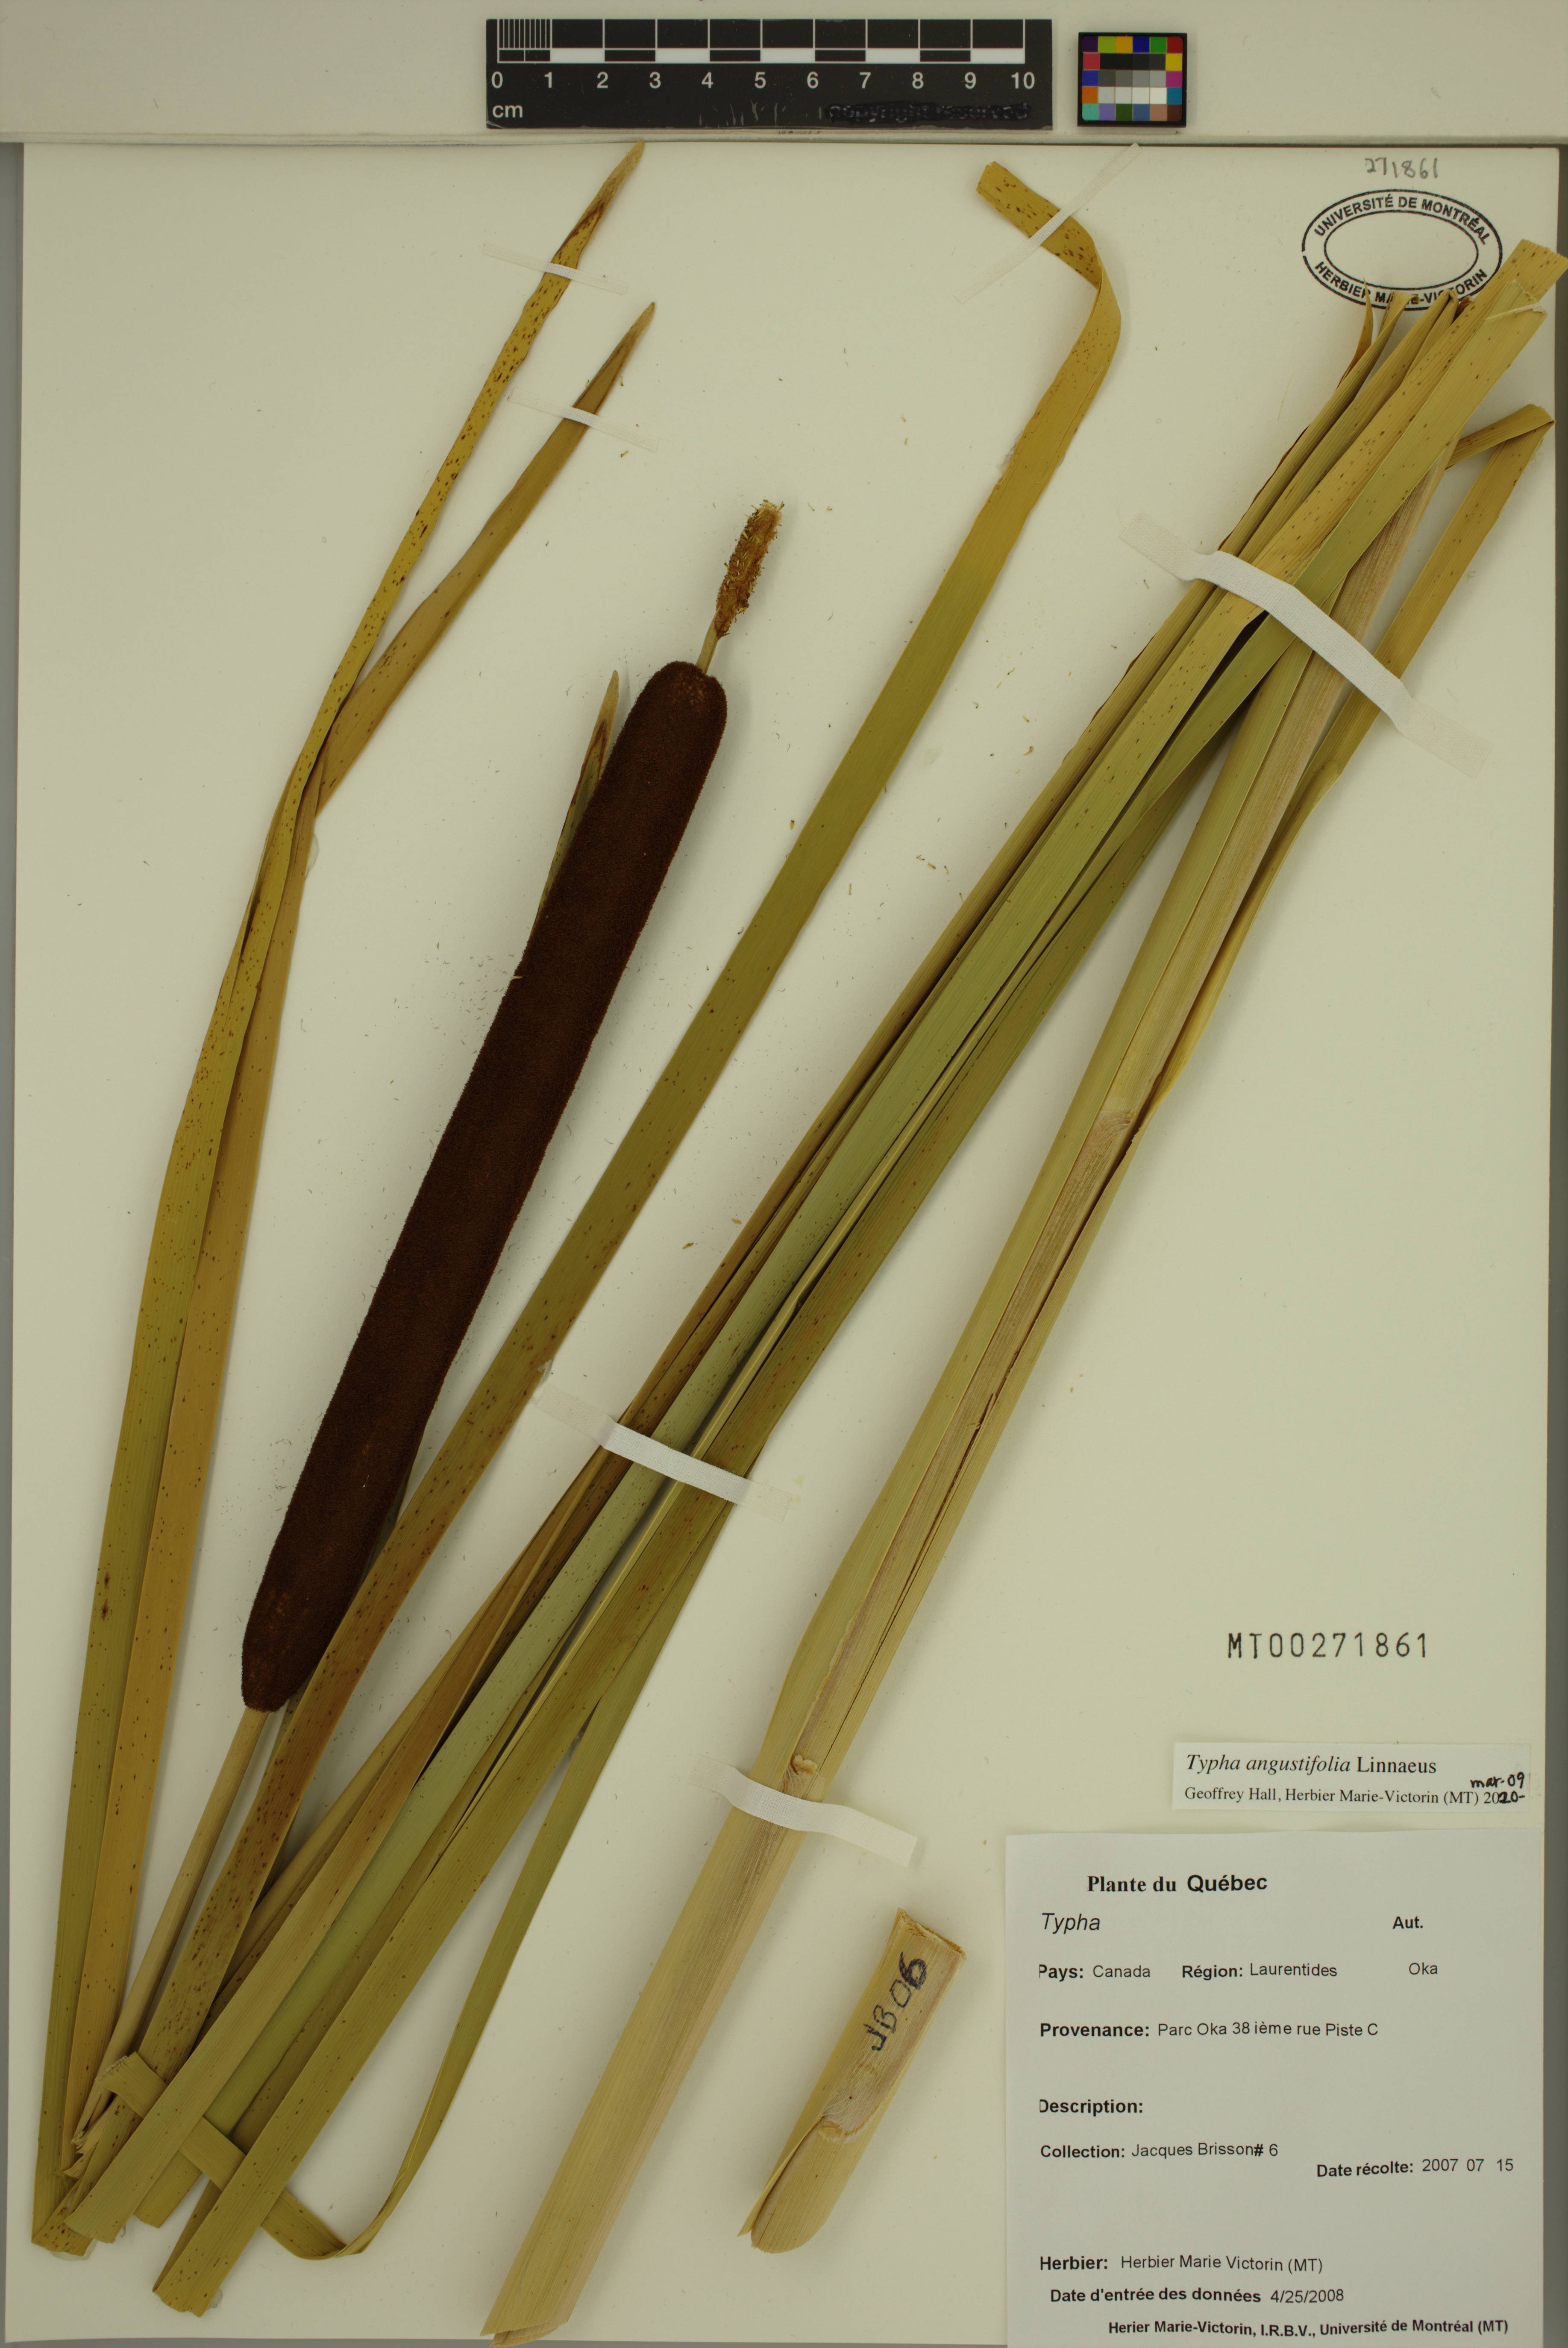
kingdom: Plantae
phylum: Tracheophyta
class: Liliopsida
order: Poales
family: Typhaceae
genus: Typha
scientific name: Typha angustifolia
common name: Lesser bulrush
